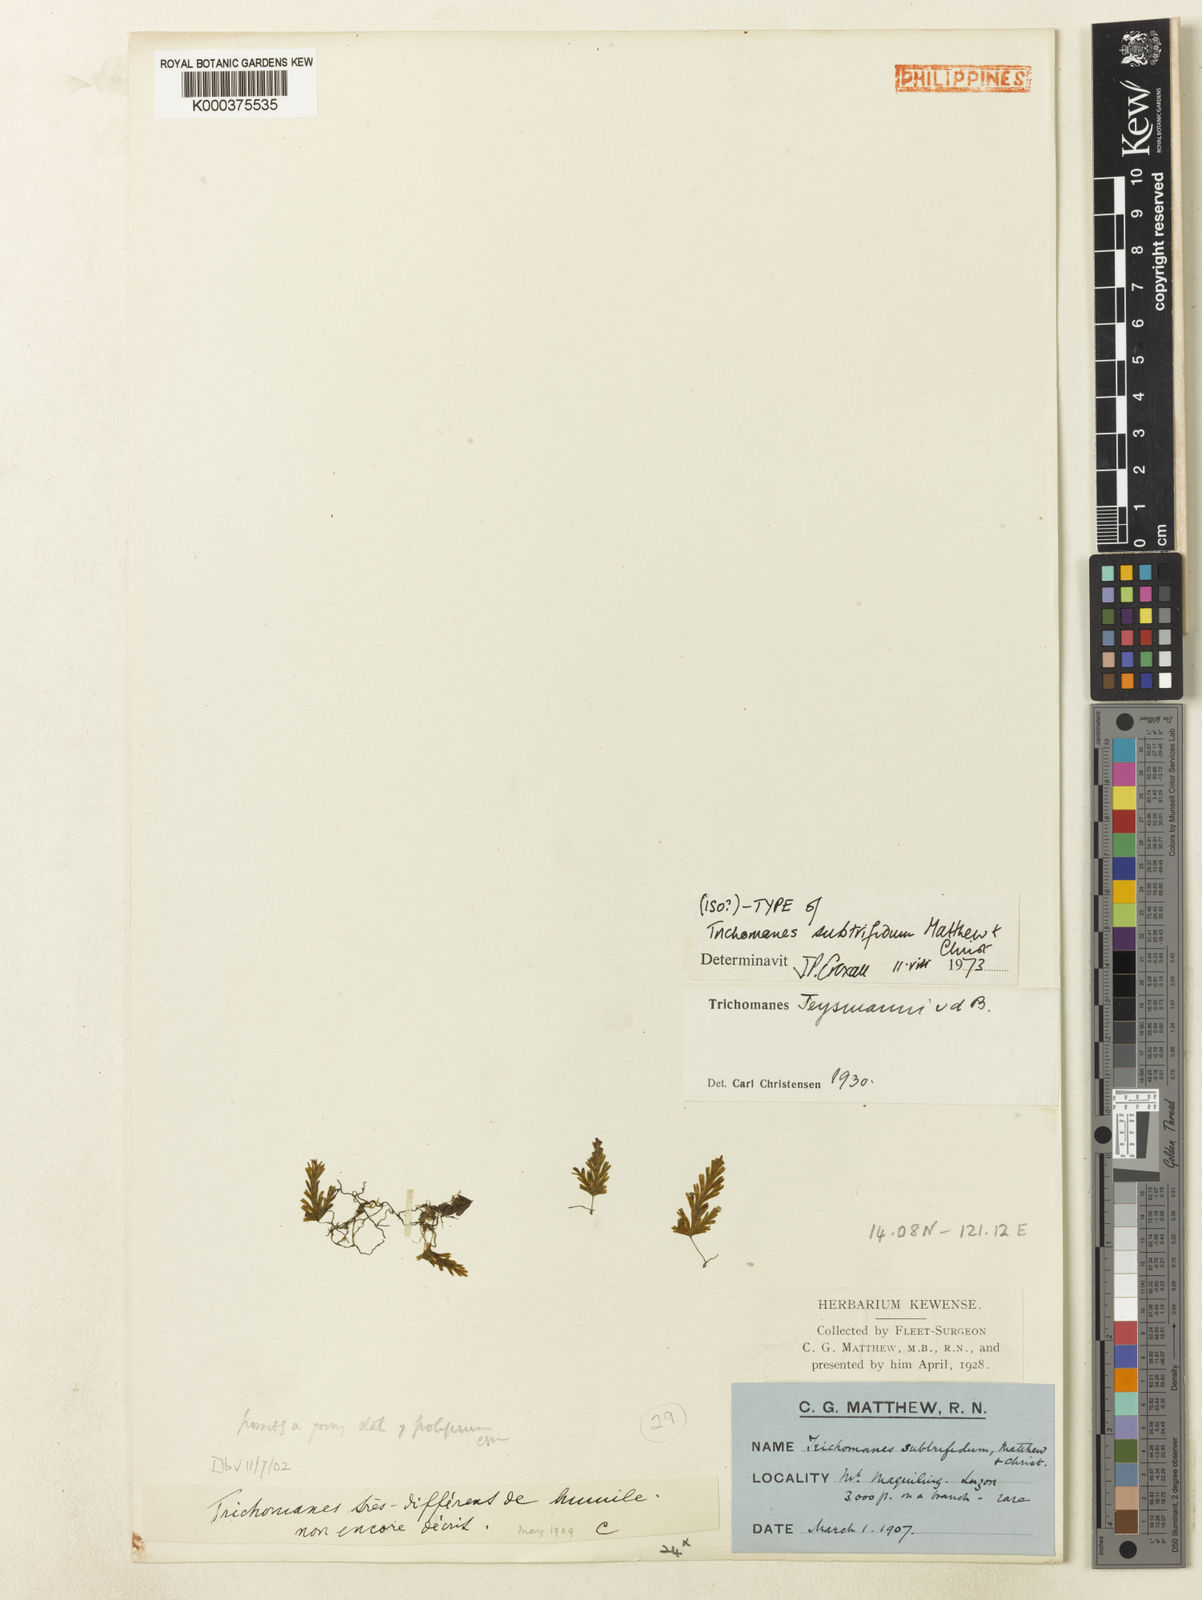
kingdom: Plantae
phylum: Tracheophyta
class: Polypodiopsida
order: Hymenophyllales
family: Hymenophyllaceae
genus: Crepidomanes
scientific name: Crepidomanes teysmannii
